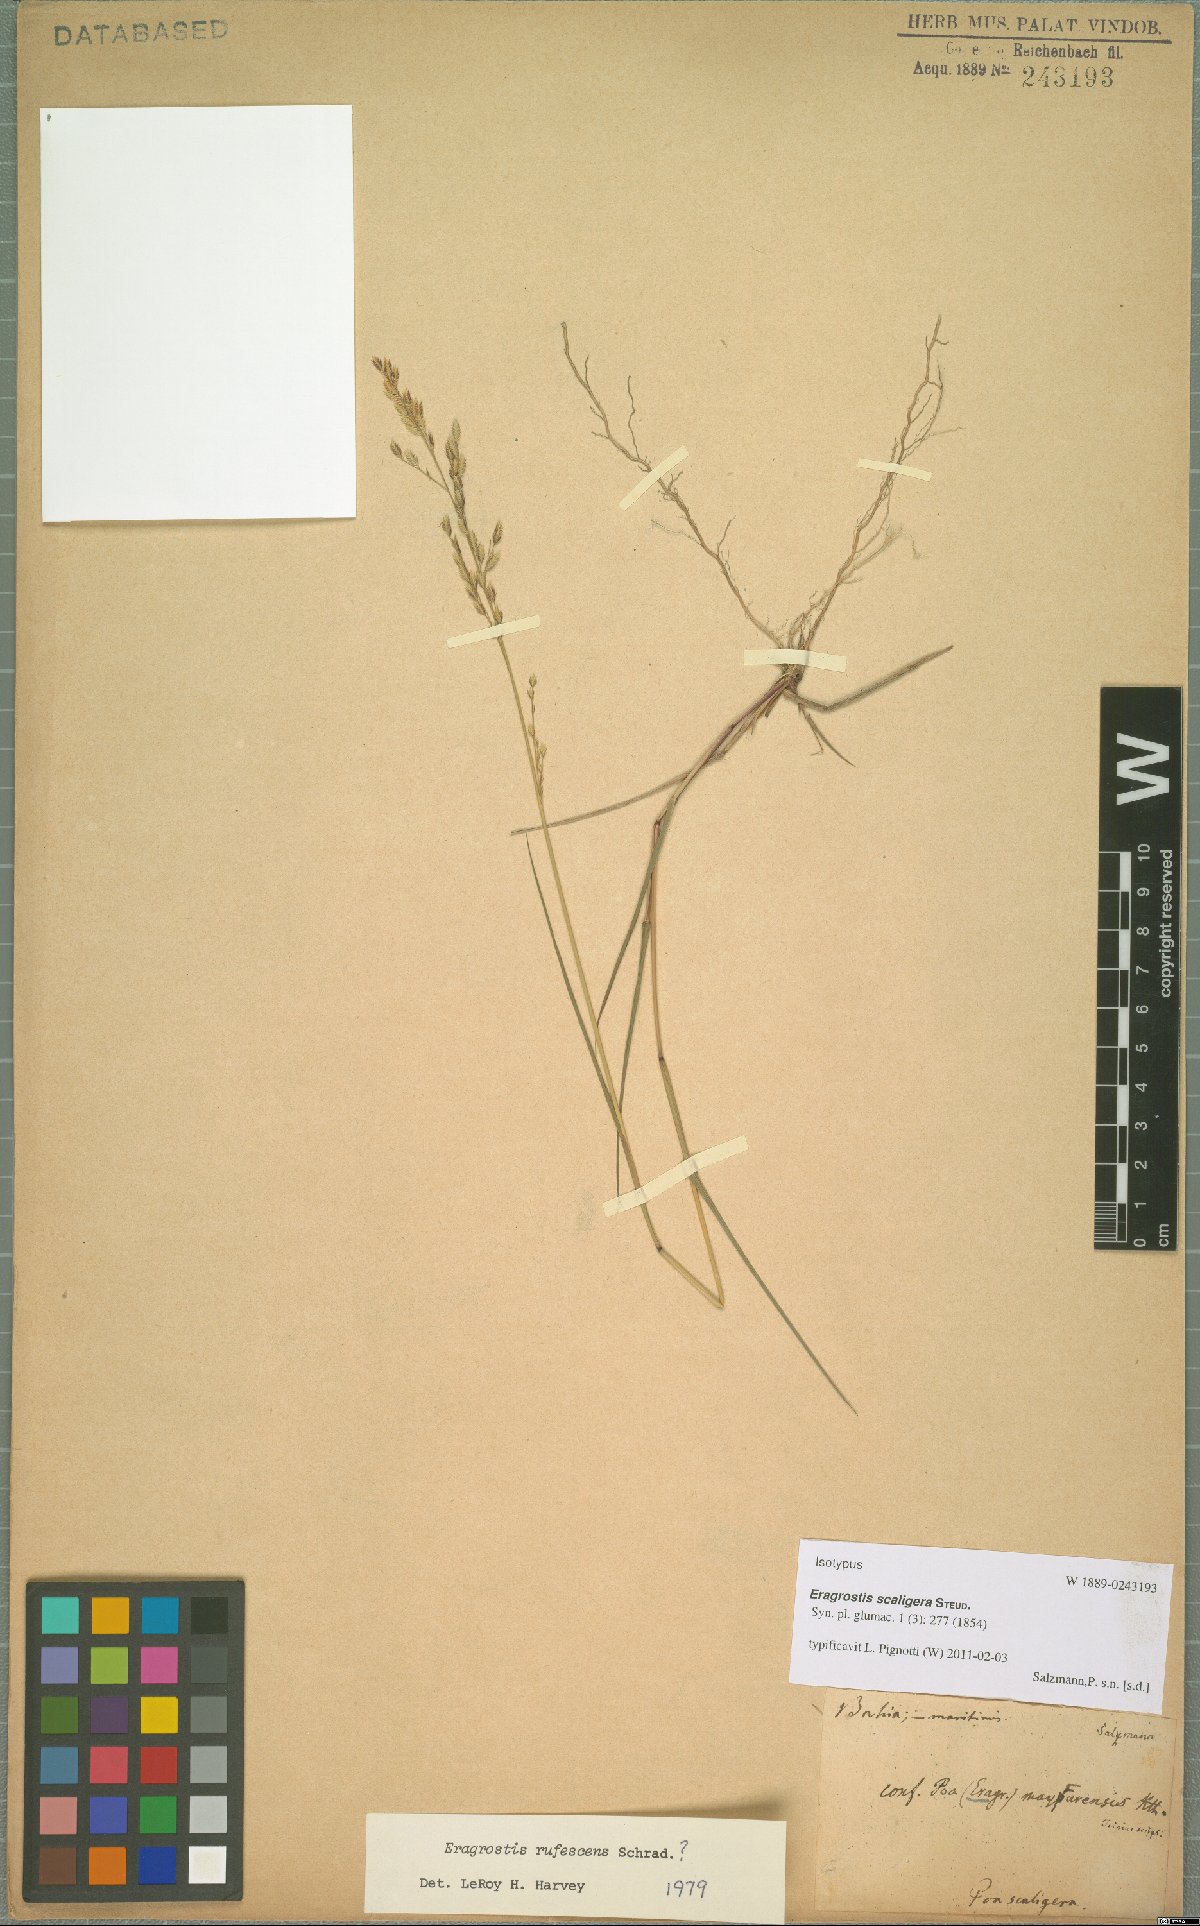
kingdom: Plantae
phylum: Tracheophyta
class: Liliopsida
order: Poales
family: Poaceae
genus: Eragrostis
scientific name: Eragrostis scaligera
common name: Tender lovegrass
